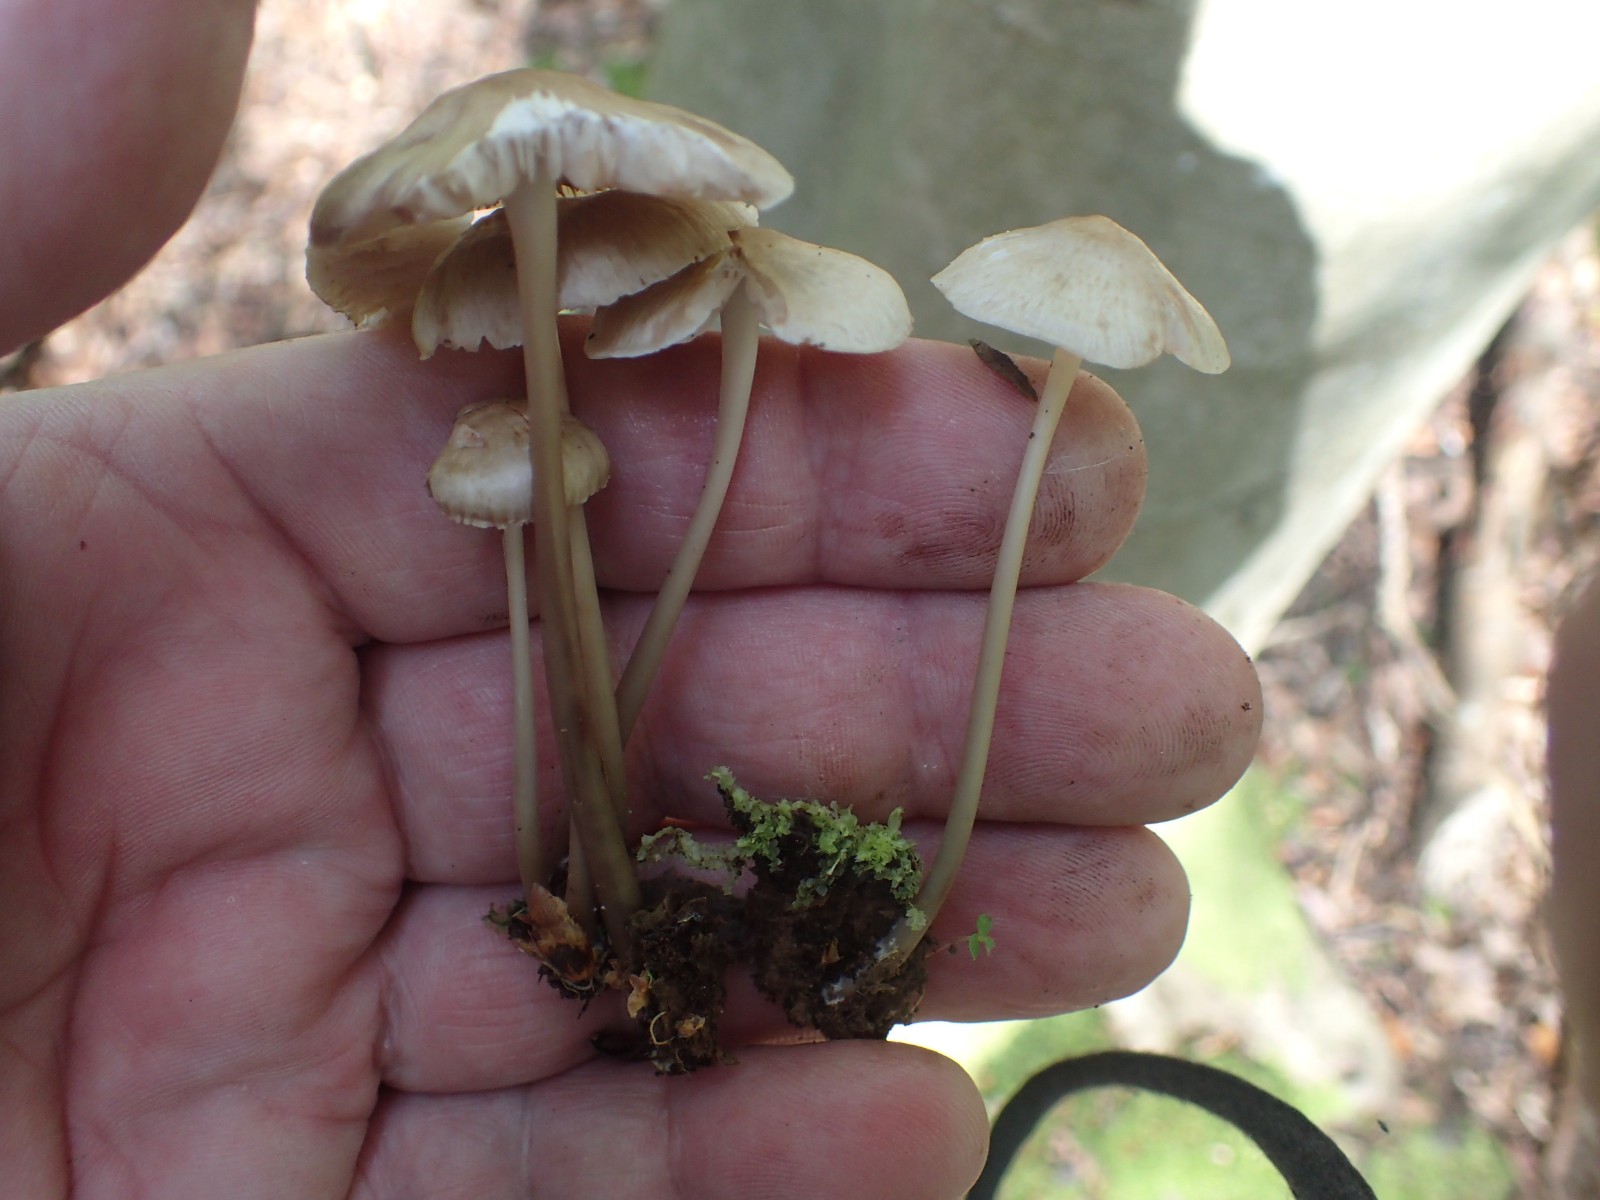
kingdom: Fungi
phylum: Basidiomycota
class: Agaricomycetes
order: Agaricales
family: Mycenaceae
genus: Mycena
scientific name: Mycena galericulata
